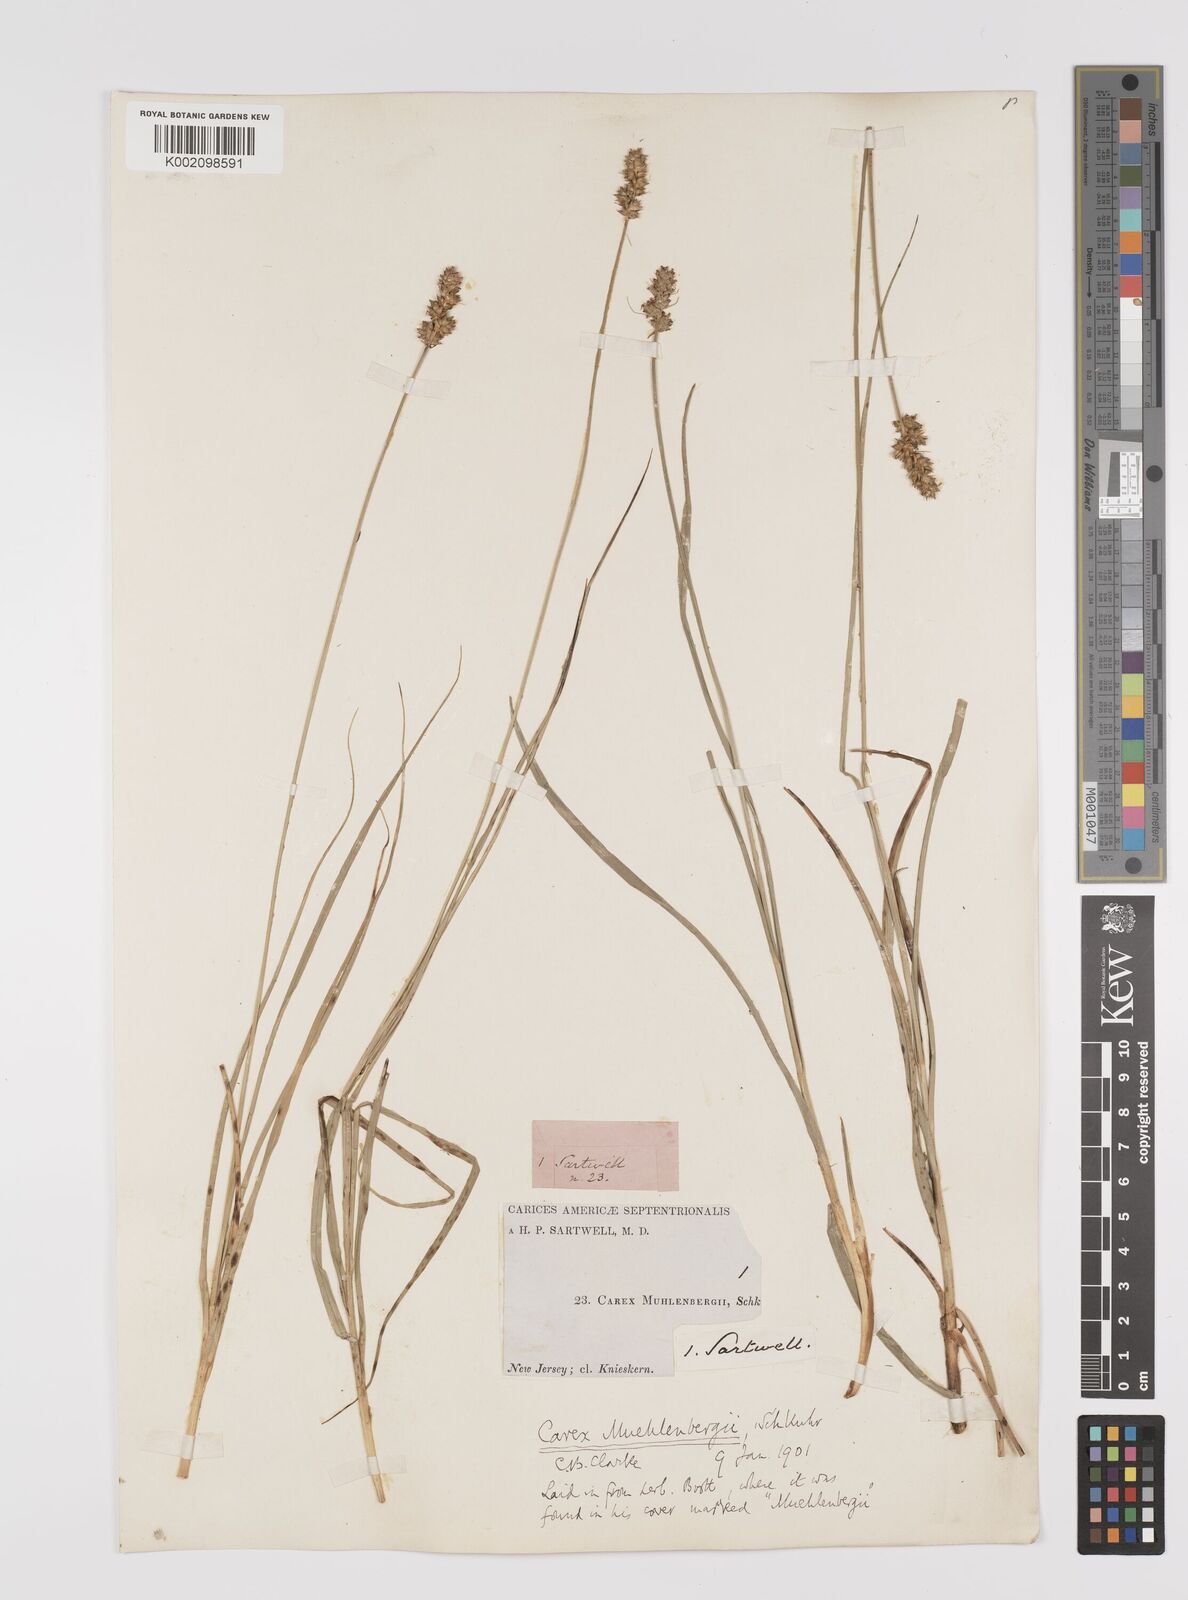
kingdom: Plantae
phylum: Tracheophyta
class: Liliopsida
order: Poales
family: Cyperaceae
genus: Carex
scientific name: Carex vulpinoidea
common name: American fox-sedge
